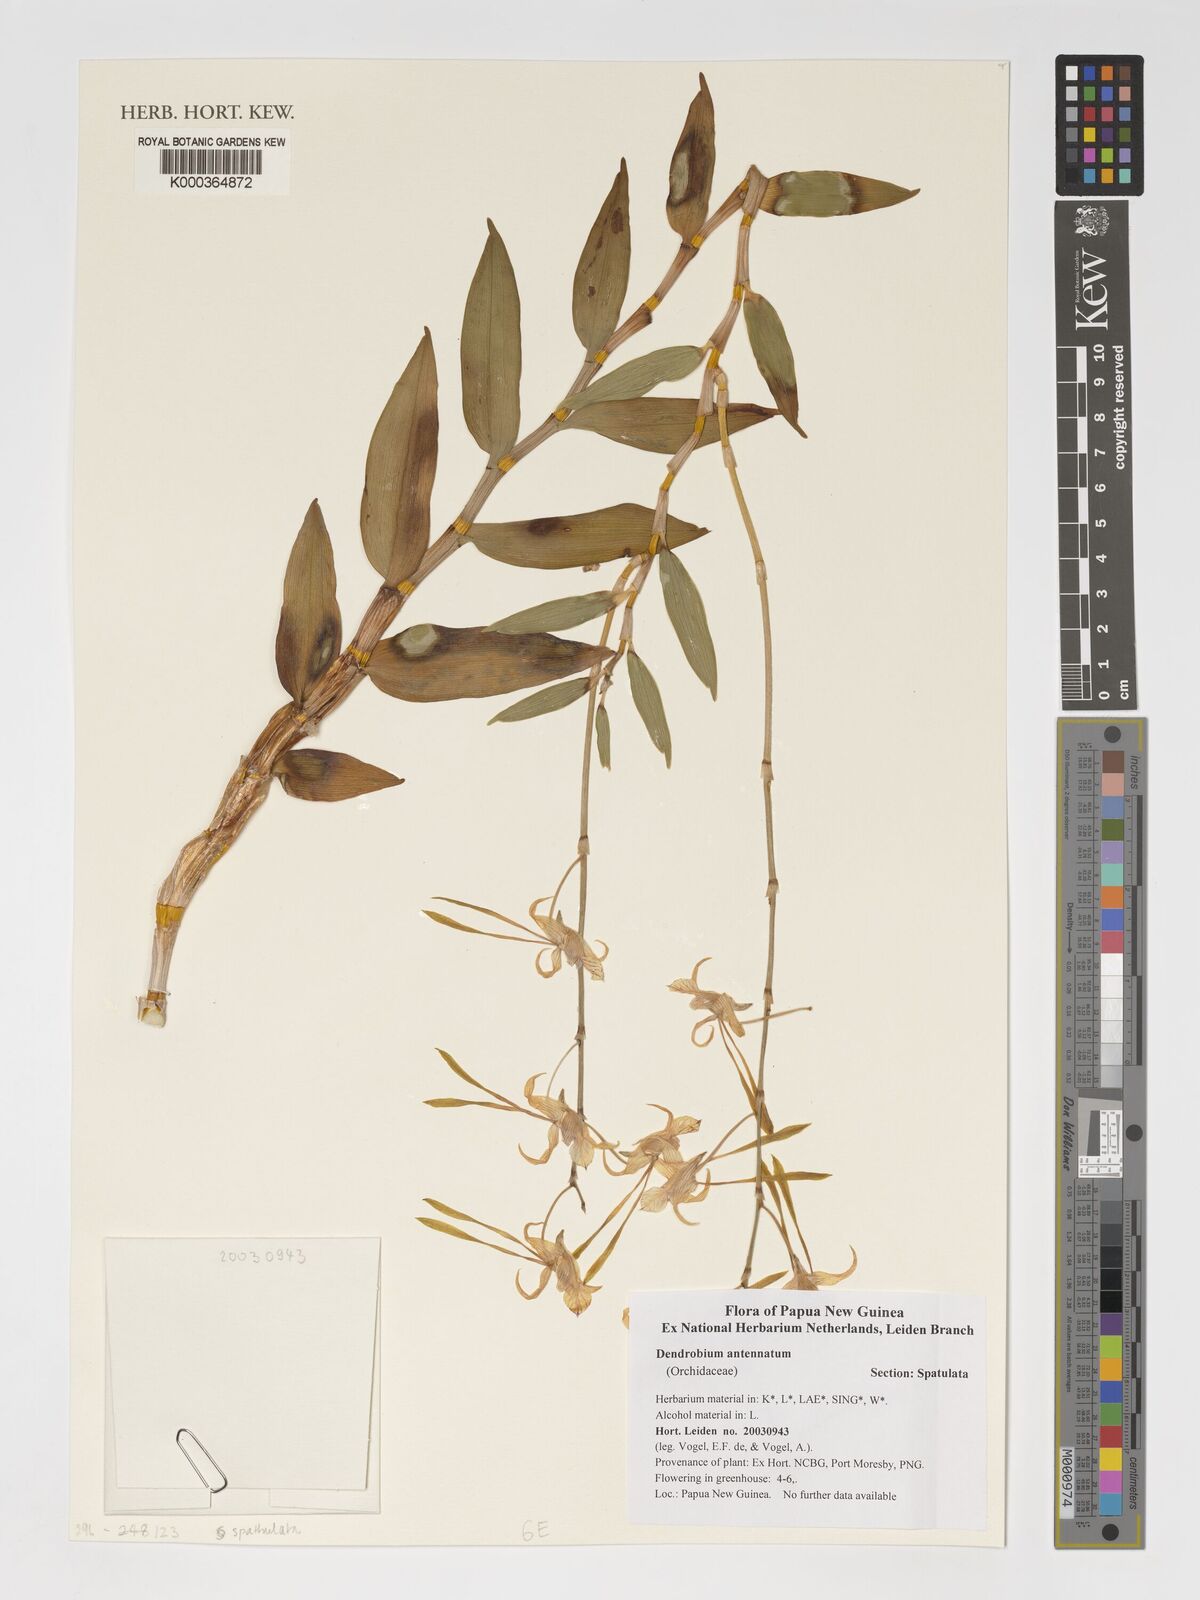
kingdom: Plantae
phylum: Tracheophyta
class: Liliopsida
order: Asparagales
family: Orchidaceae
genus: Dendrobium
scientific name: Dendrobium antennatum
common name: Green antelope orchid
